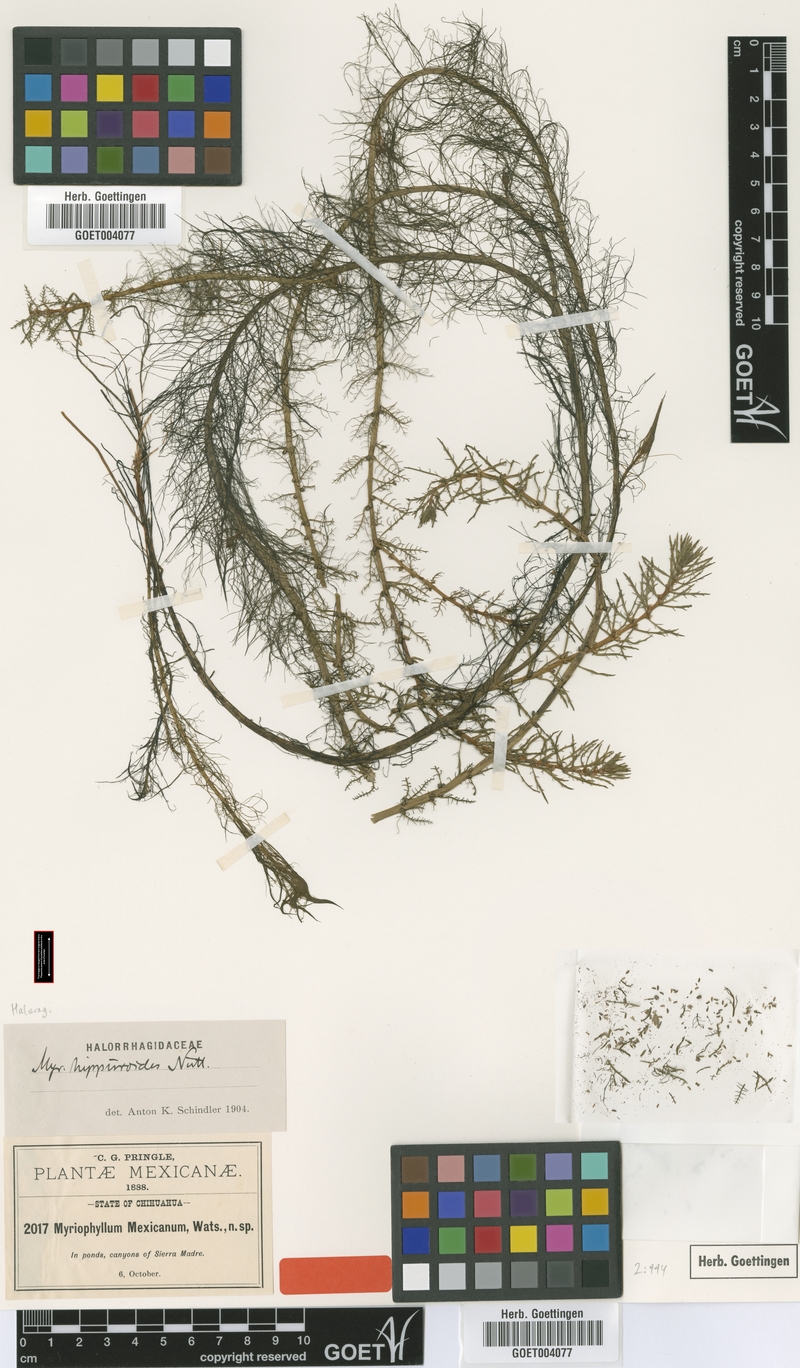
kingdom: Plantae
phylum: Tracheophyta
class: Magnoliopsida
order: Saxifragales
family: Haloragaceae
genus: Myriophyllum
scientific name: Myriophyllum hippuroides
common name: Western milfoil
